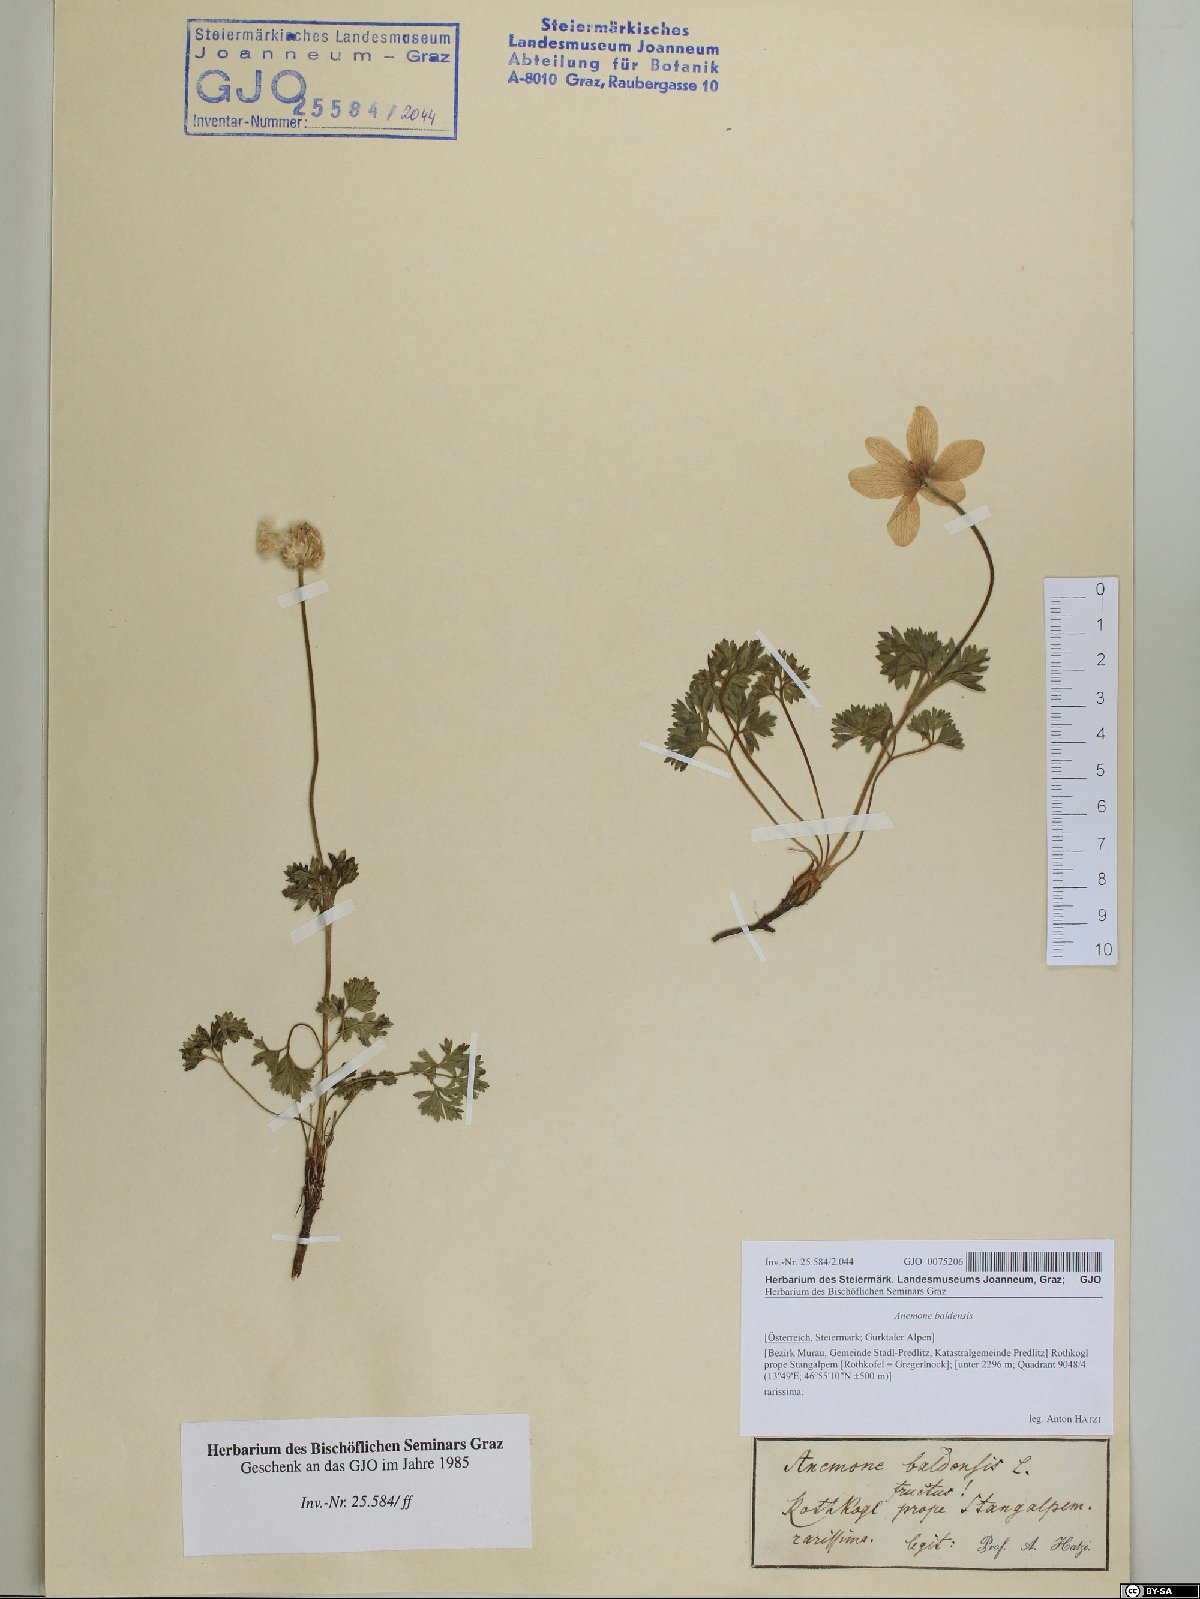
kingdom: Plantae
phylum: Tracheophyta
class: Magnoliopsida
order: Ranunculales
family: Ranunculaceae
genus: Anemone
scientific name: Anemone baldensis
